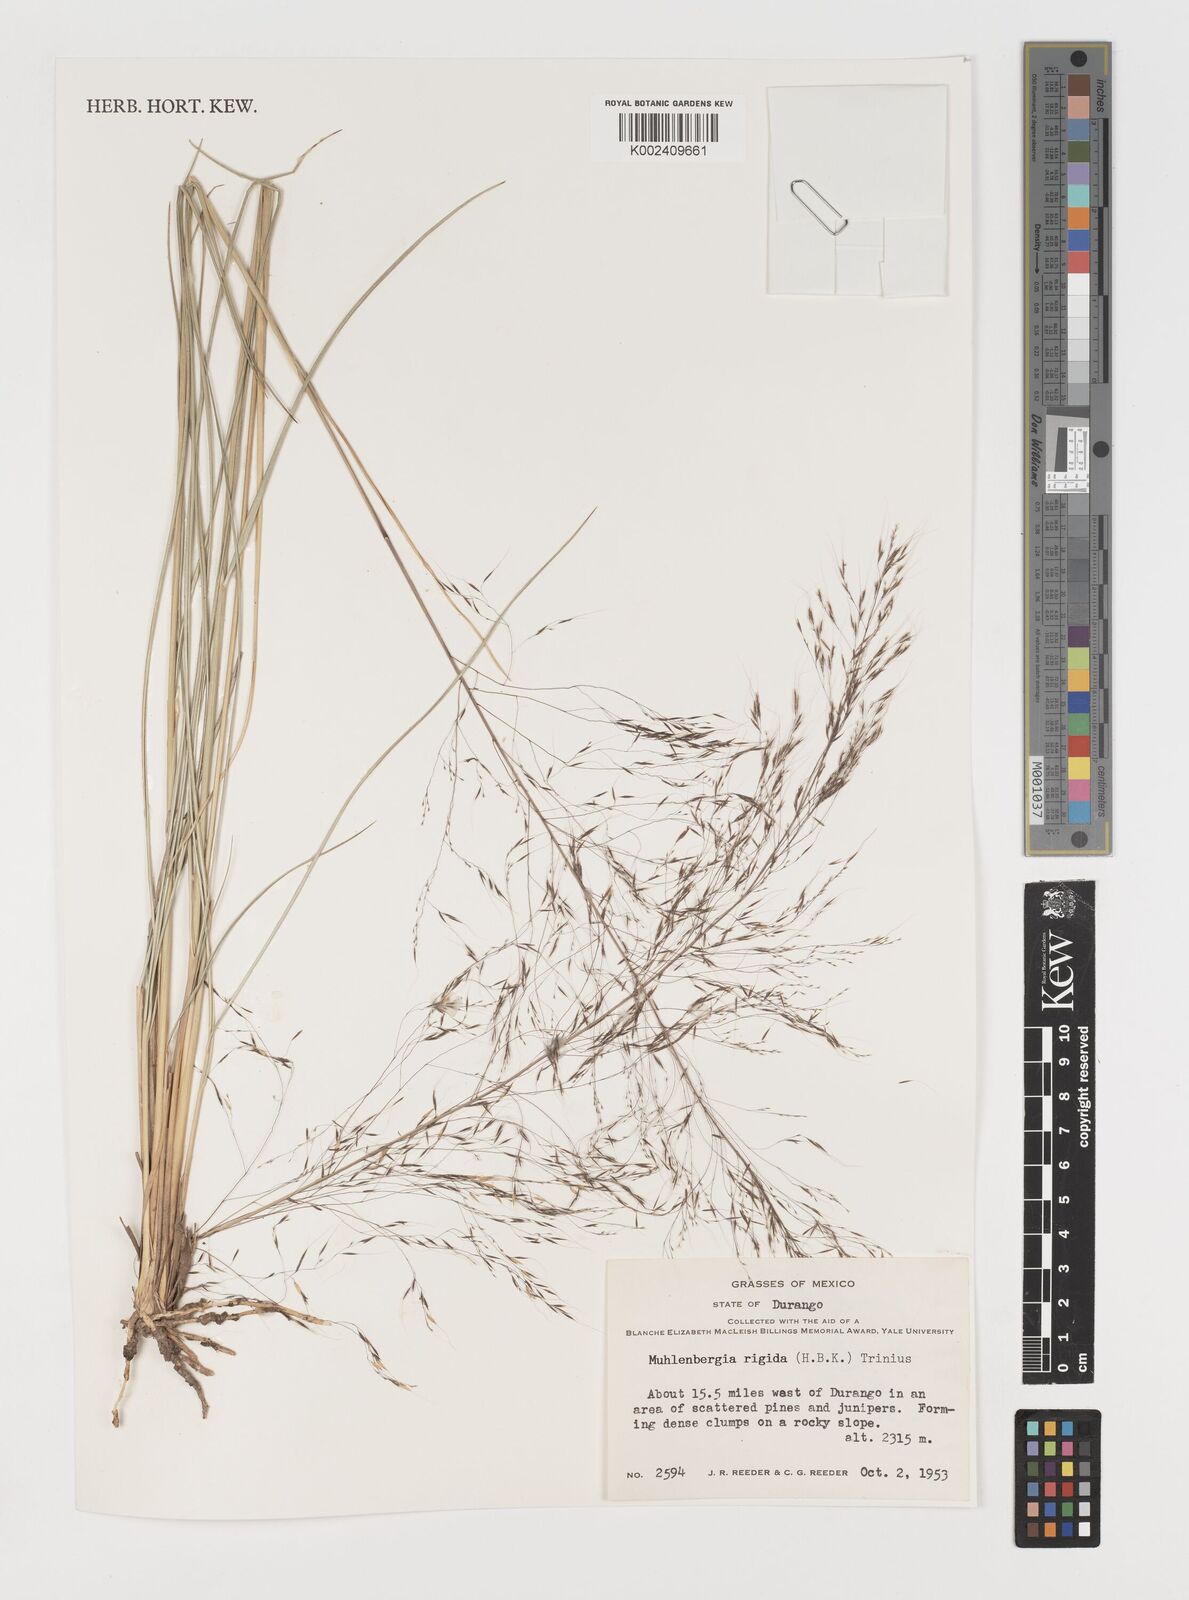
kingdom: Plantae
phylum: Tracheophyta
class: Liliopsida
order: Poales
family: Poaceae
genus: Muhlenbergia
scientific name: Muhlenbergia rigida
